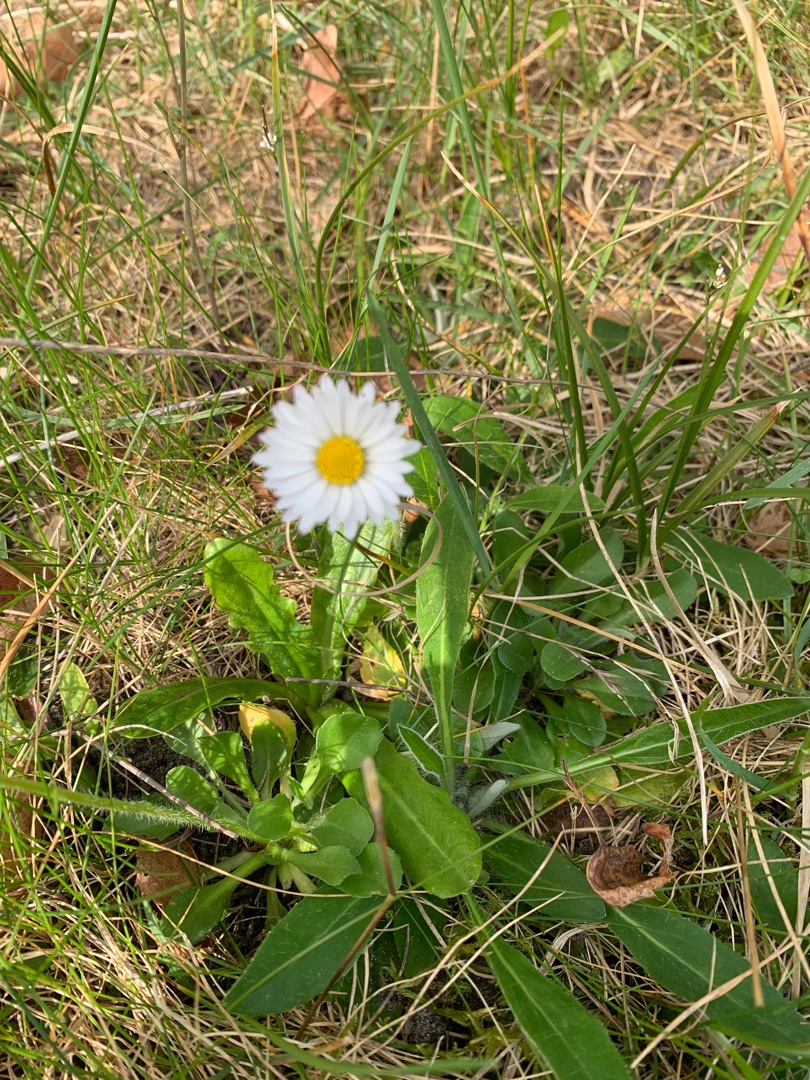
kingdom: Plantae
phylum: Tracheophyta
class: Magnoliopsida
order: Asterales
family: Asteraceae
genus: Bellis
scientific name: Bellis perennis
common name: Tusindfryd
